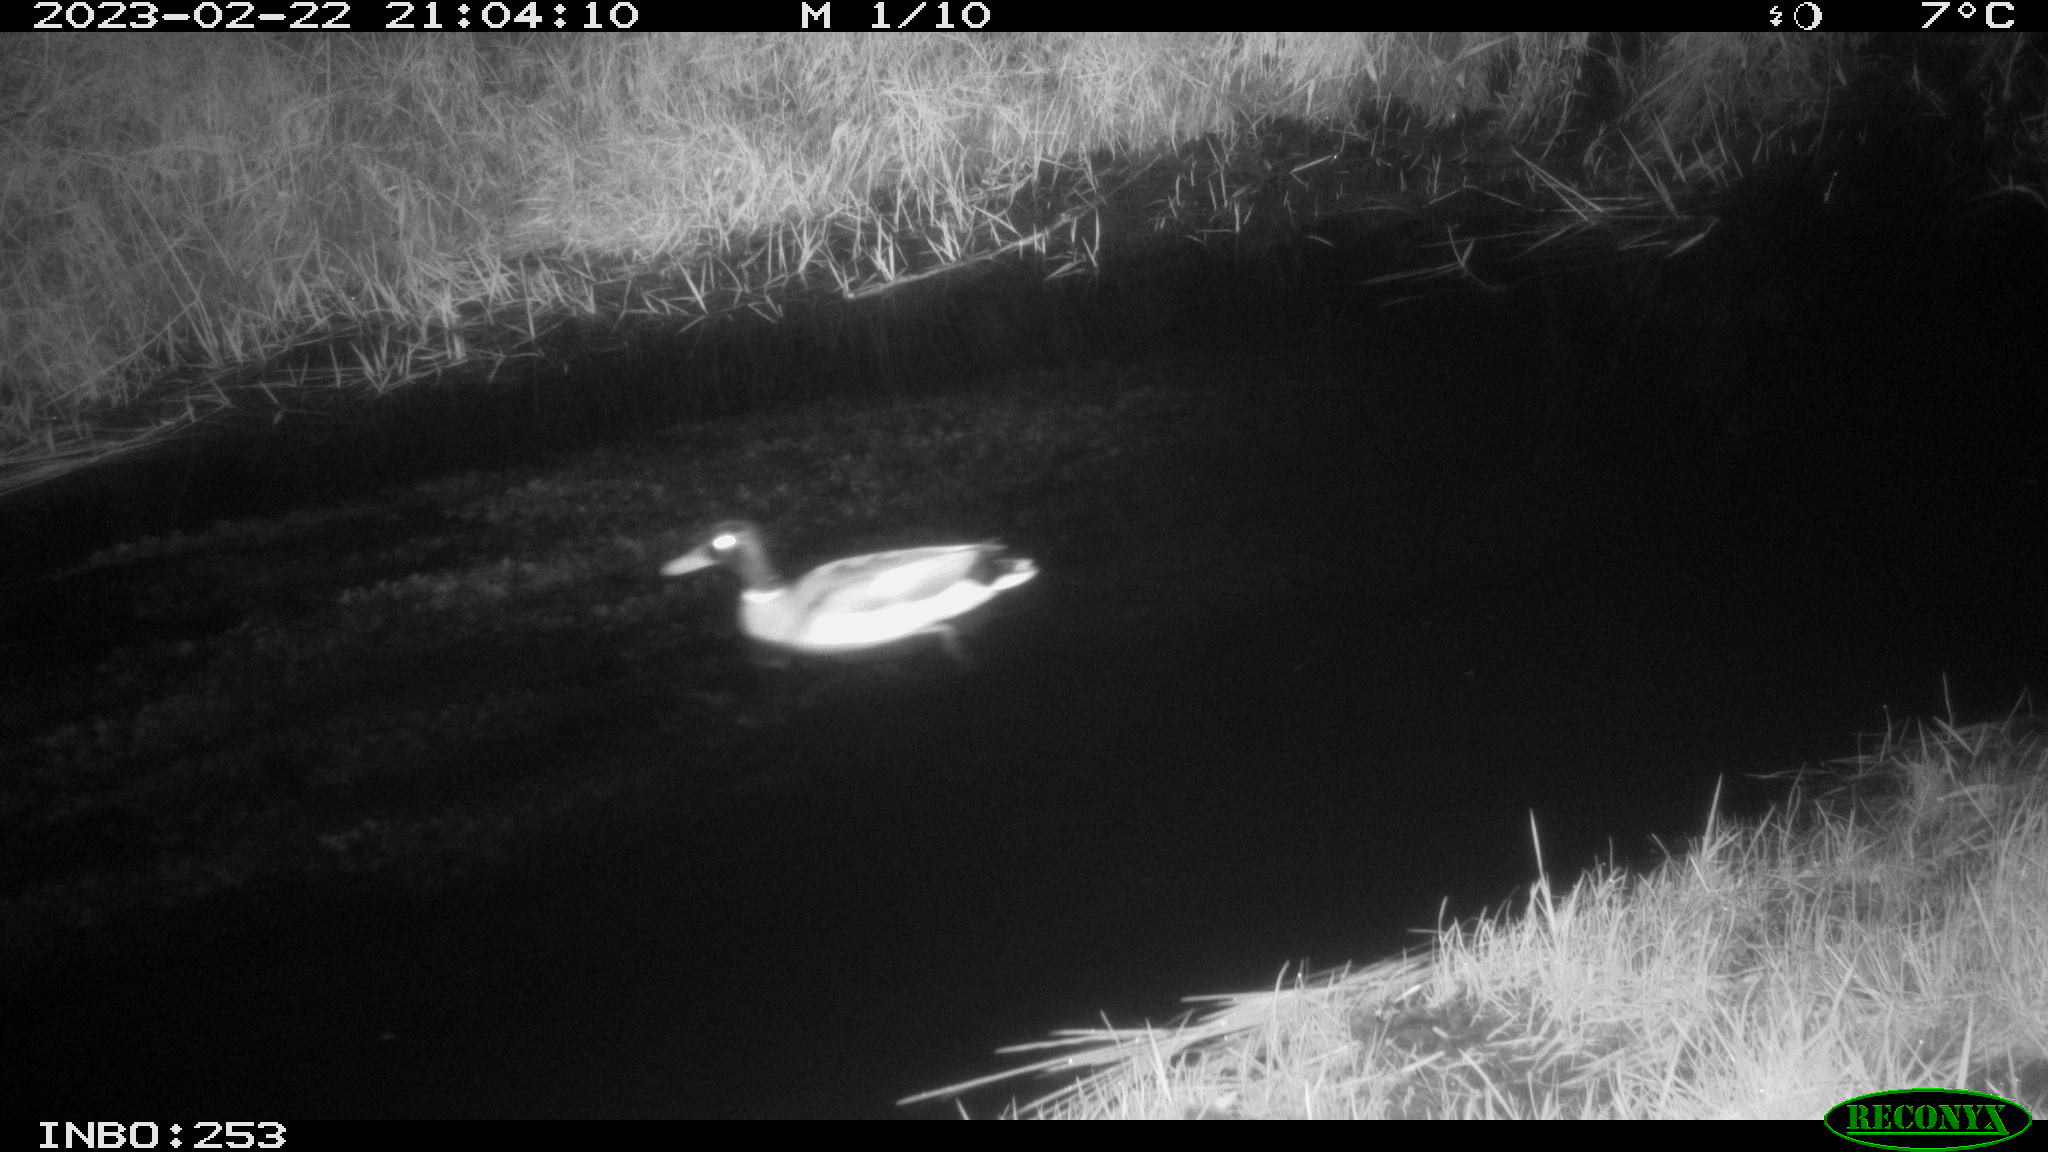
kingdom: Animalia
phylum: Chordata
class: Aves
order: Anseriformes
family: Anatidae
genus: Anas
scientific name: Anas
